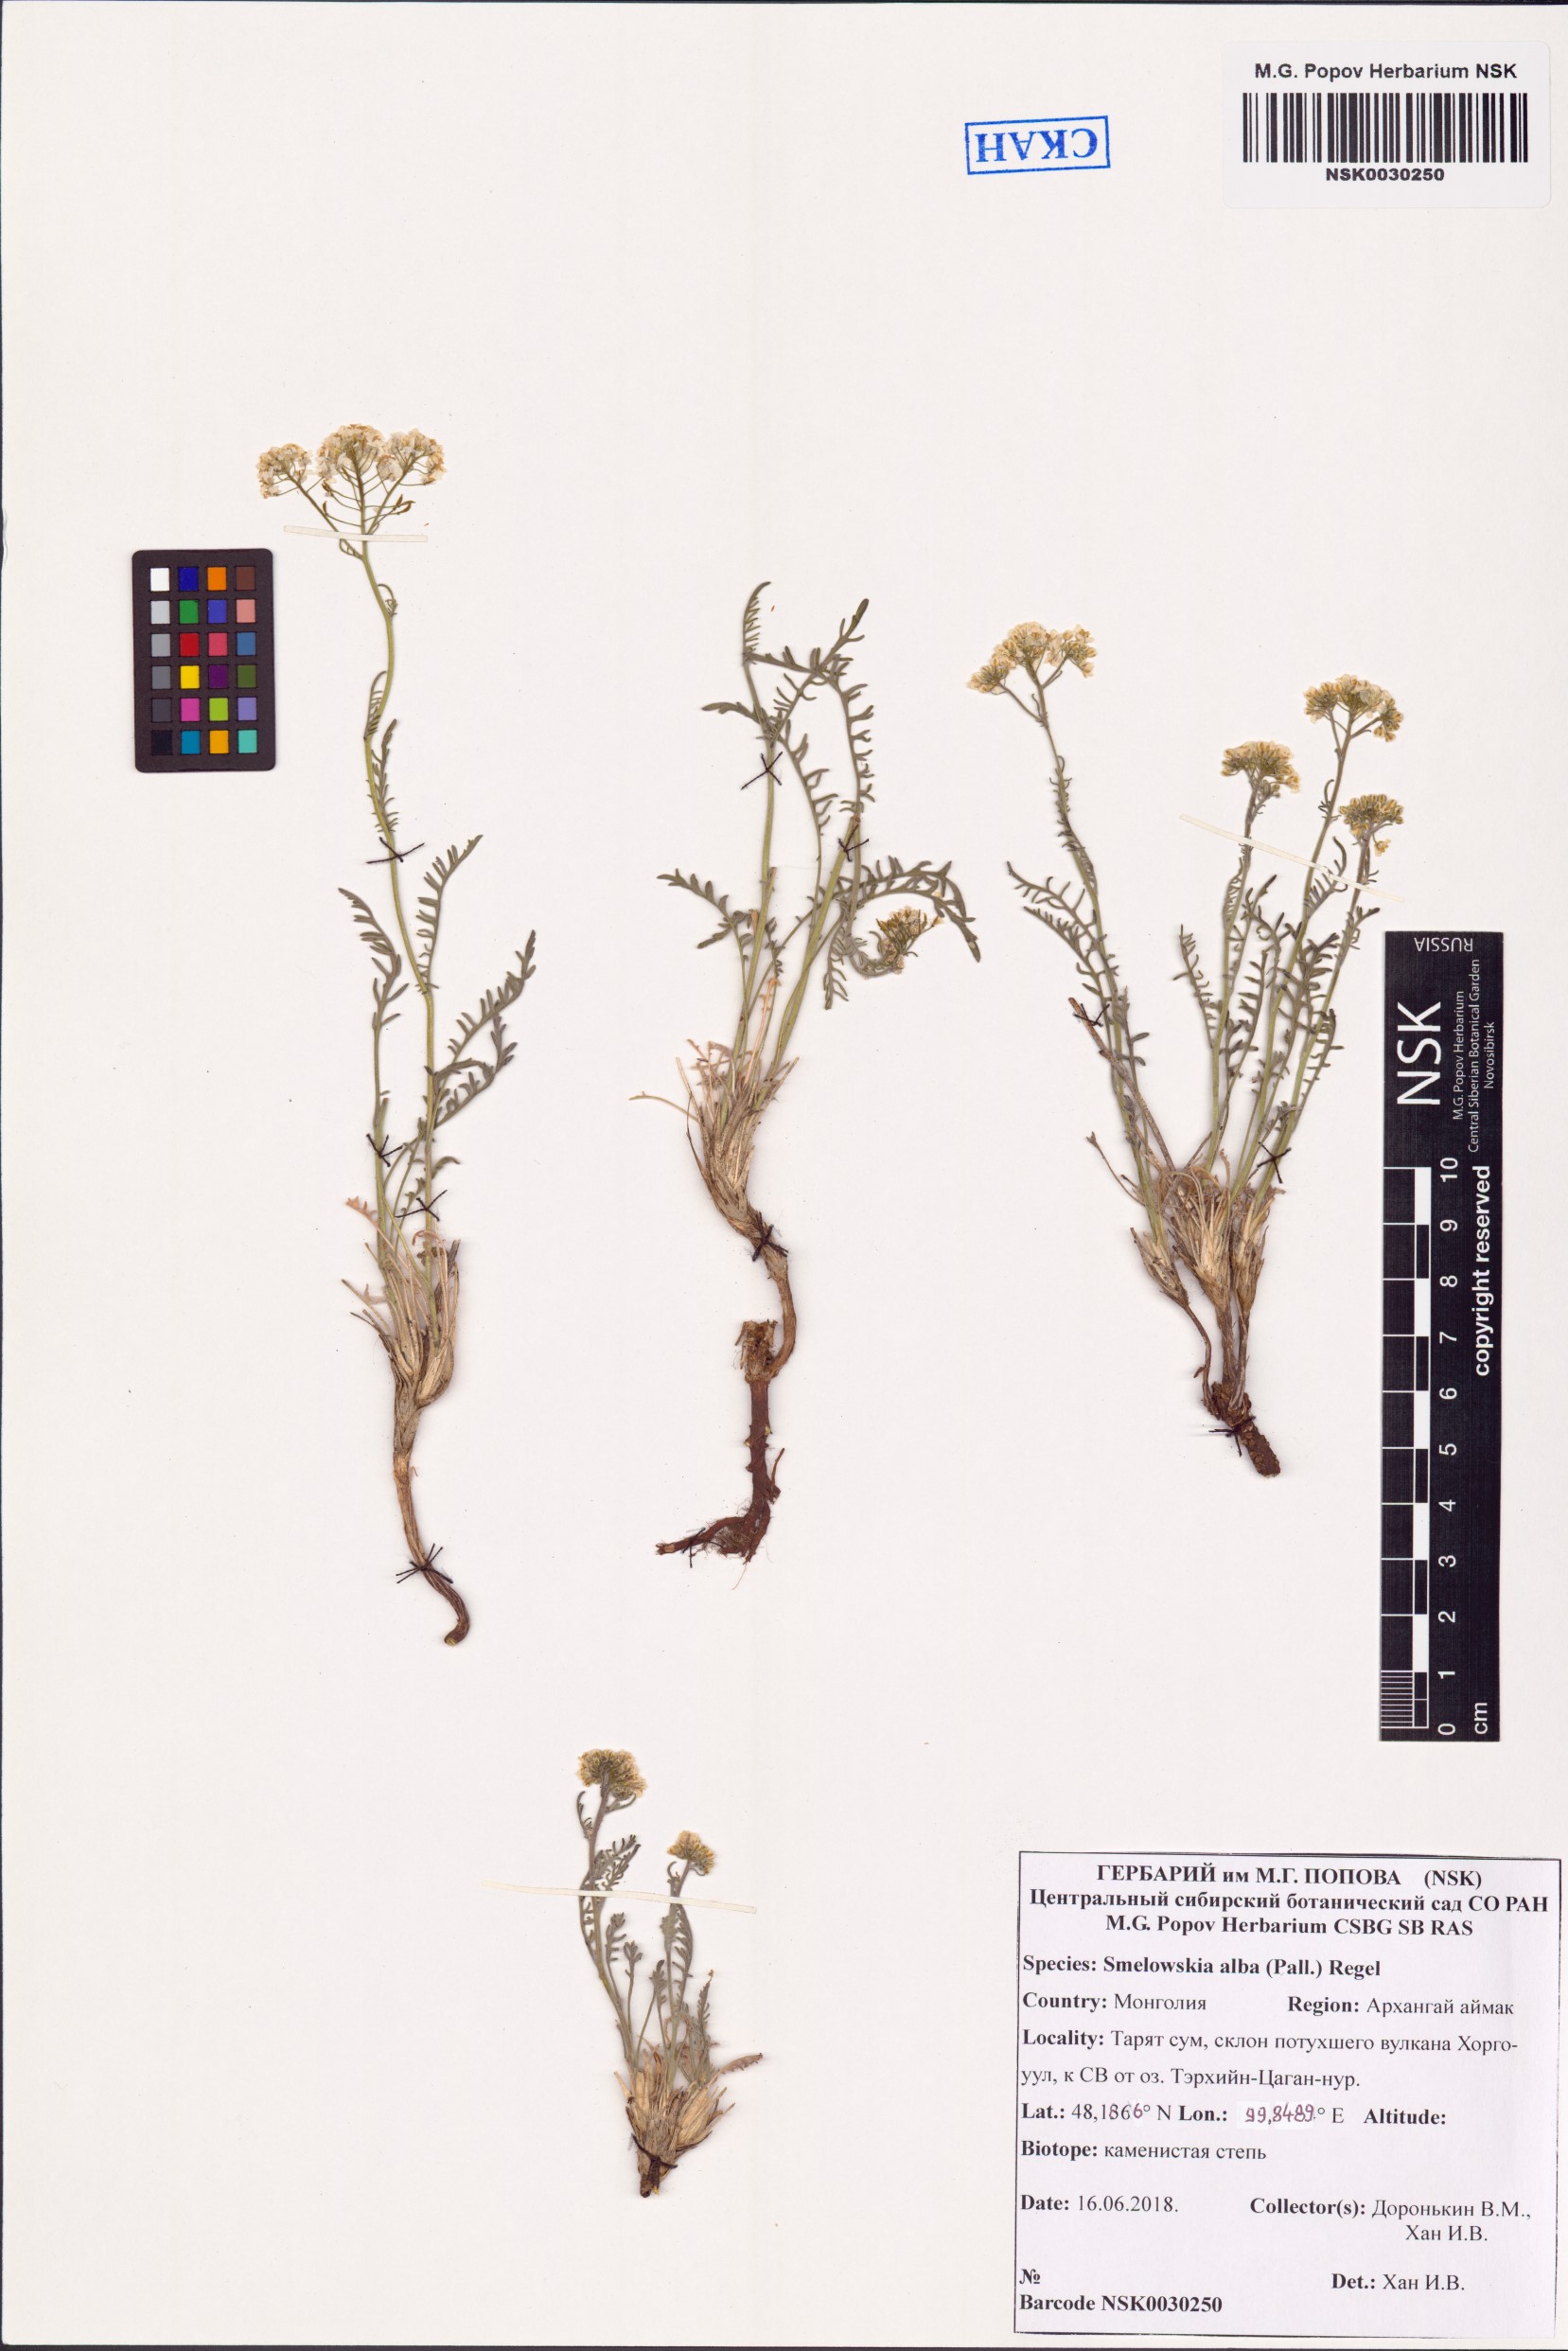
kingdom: Plantae
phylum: Tracheophyta
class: Magnoliopsida
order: Brassicales
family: Brassicaceae
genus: Smelowskia
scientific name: Smelowskia alba
